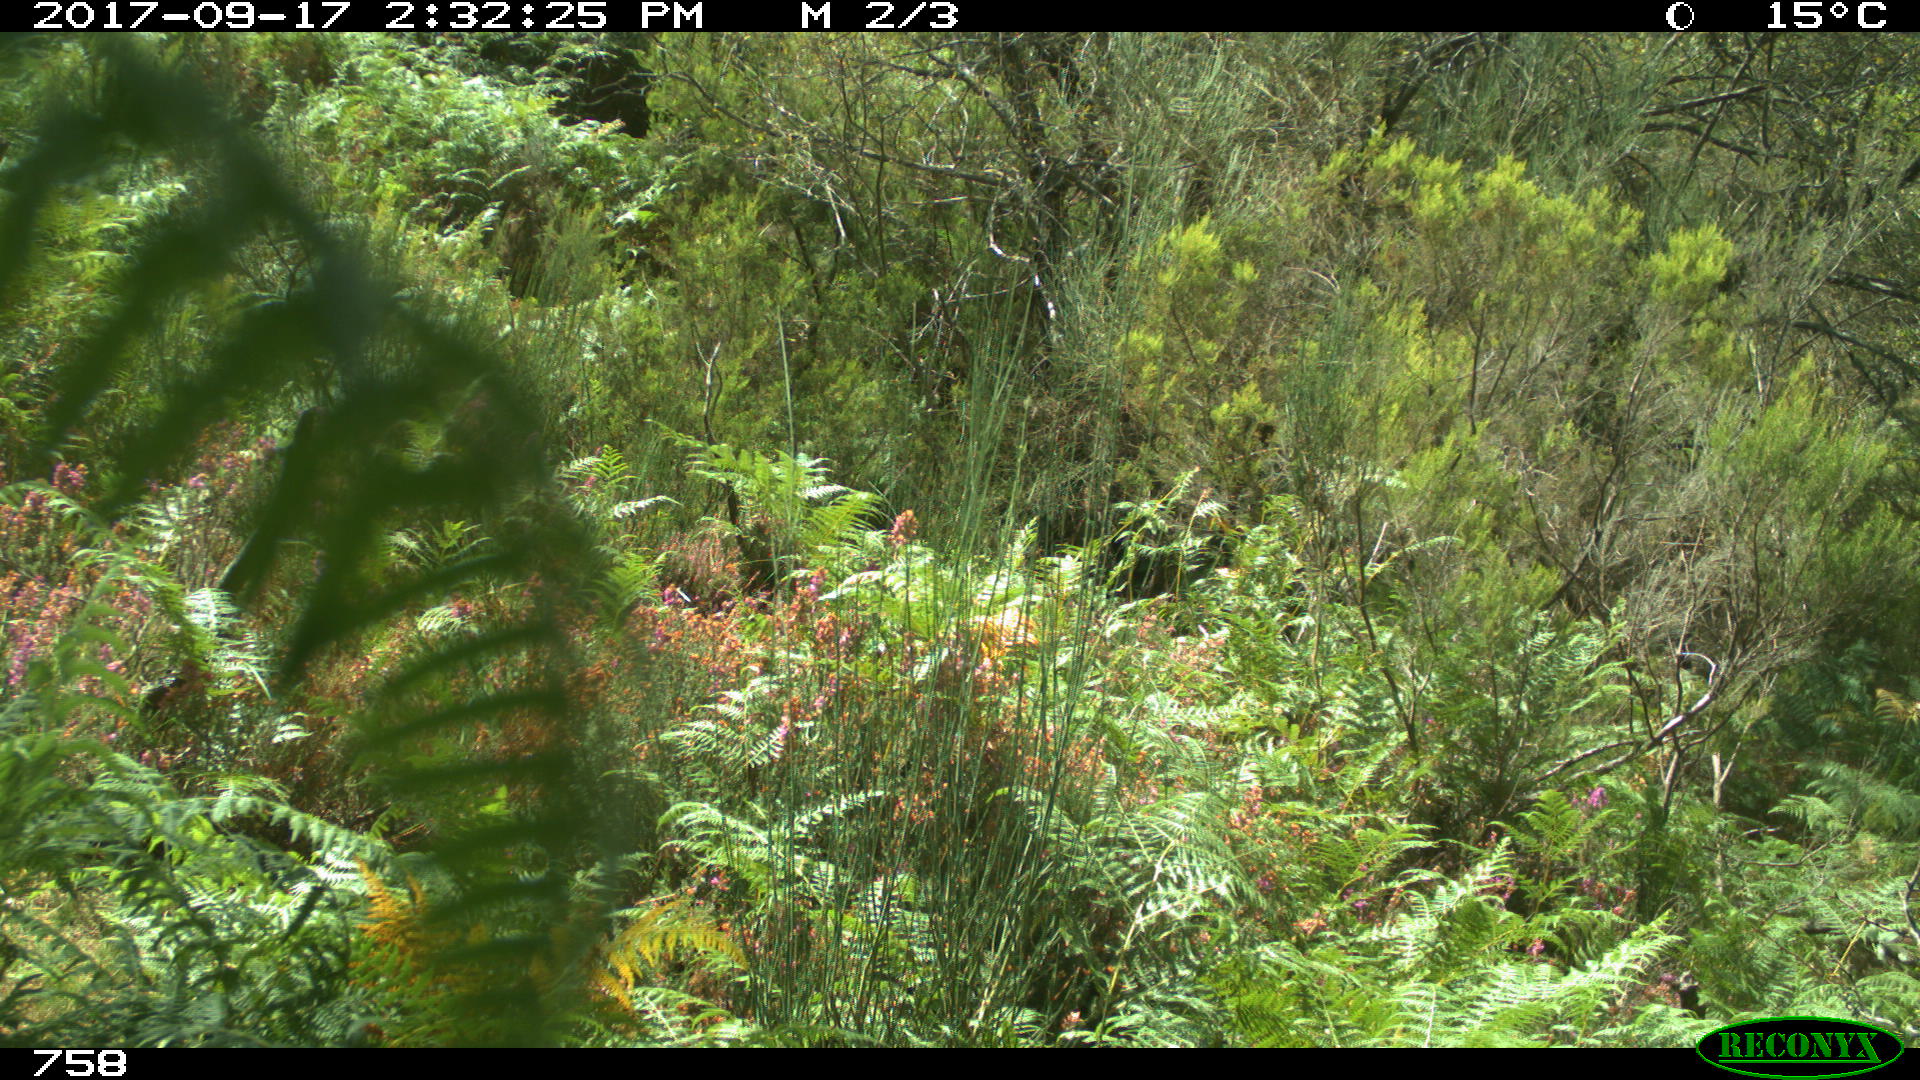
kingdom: Animalia
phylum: Chordata
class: Mammalia
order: Perissodactyla
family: Equidae
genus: Equus
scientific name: Equus caballus
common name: Horse
